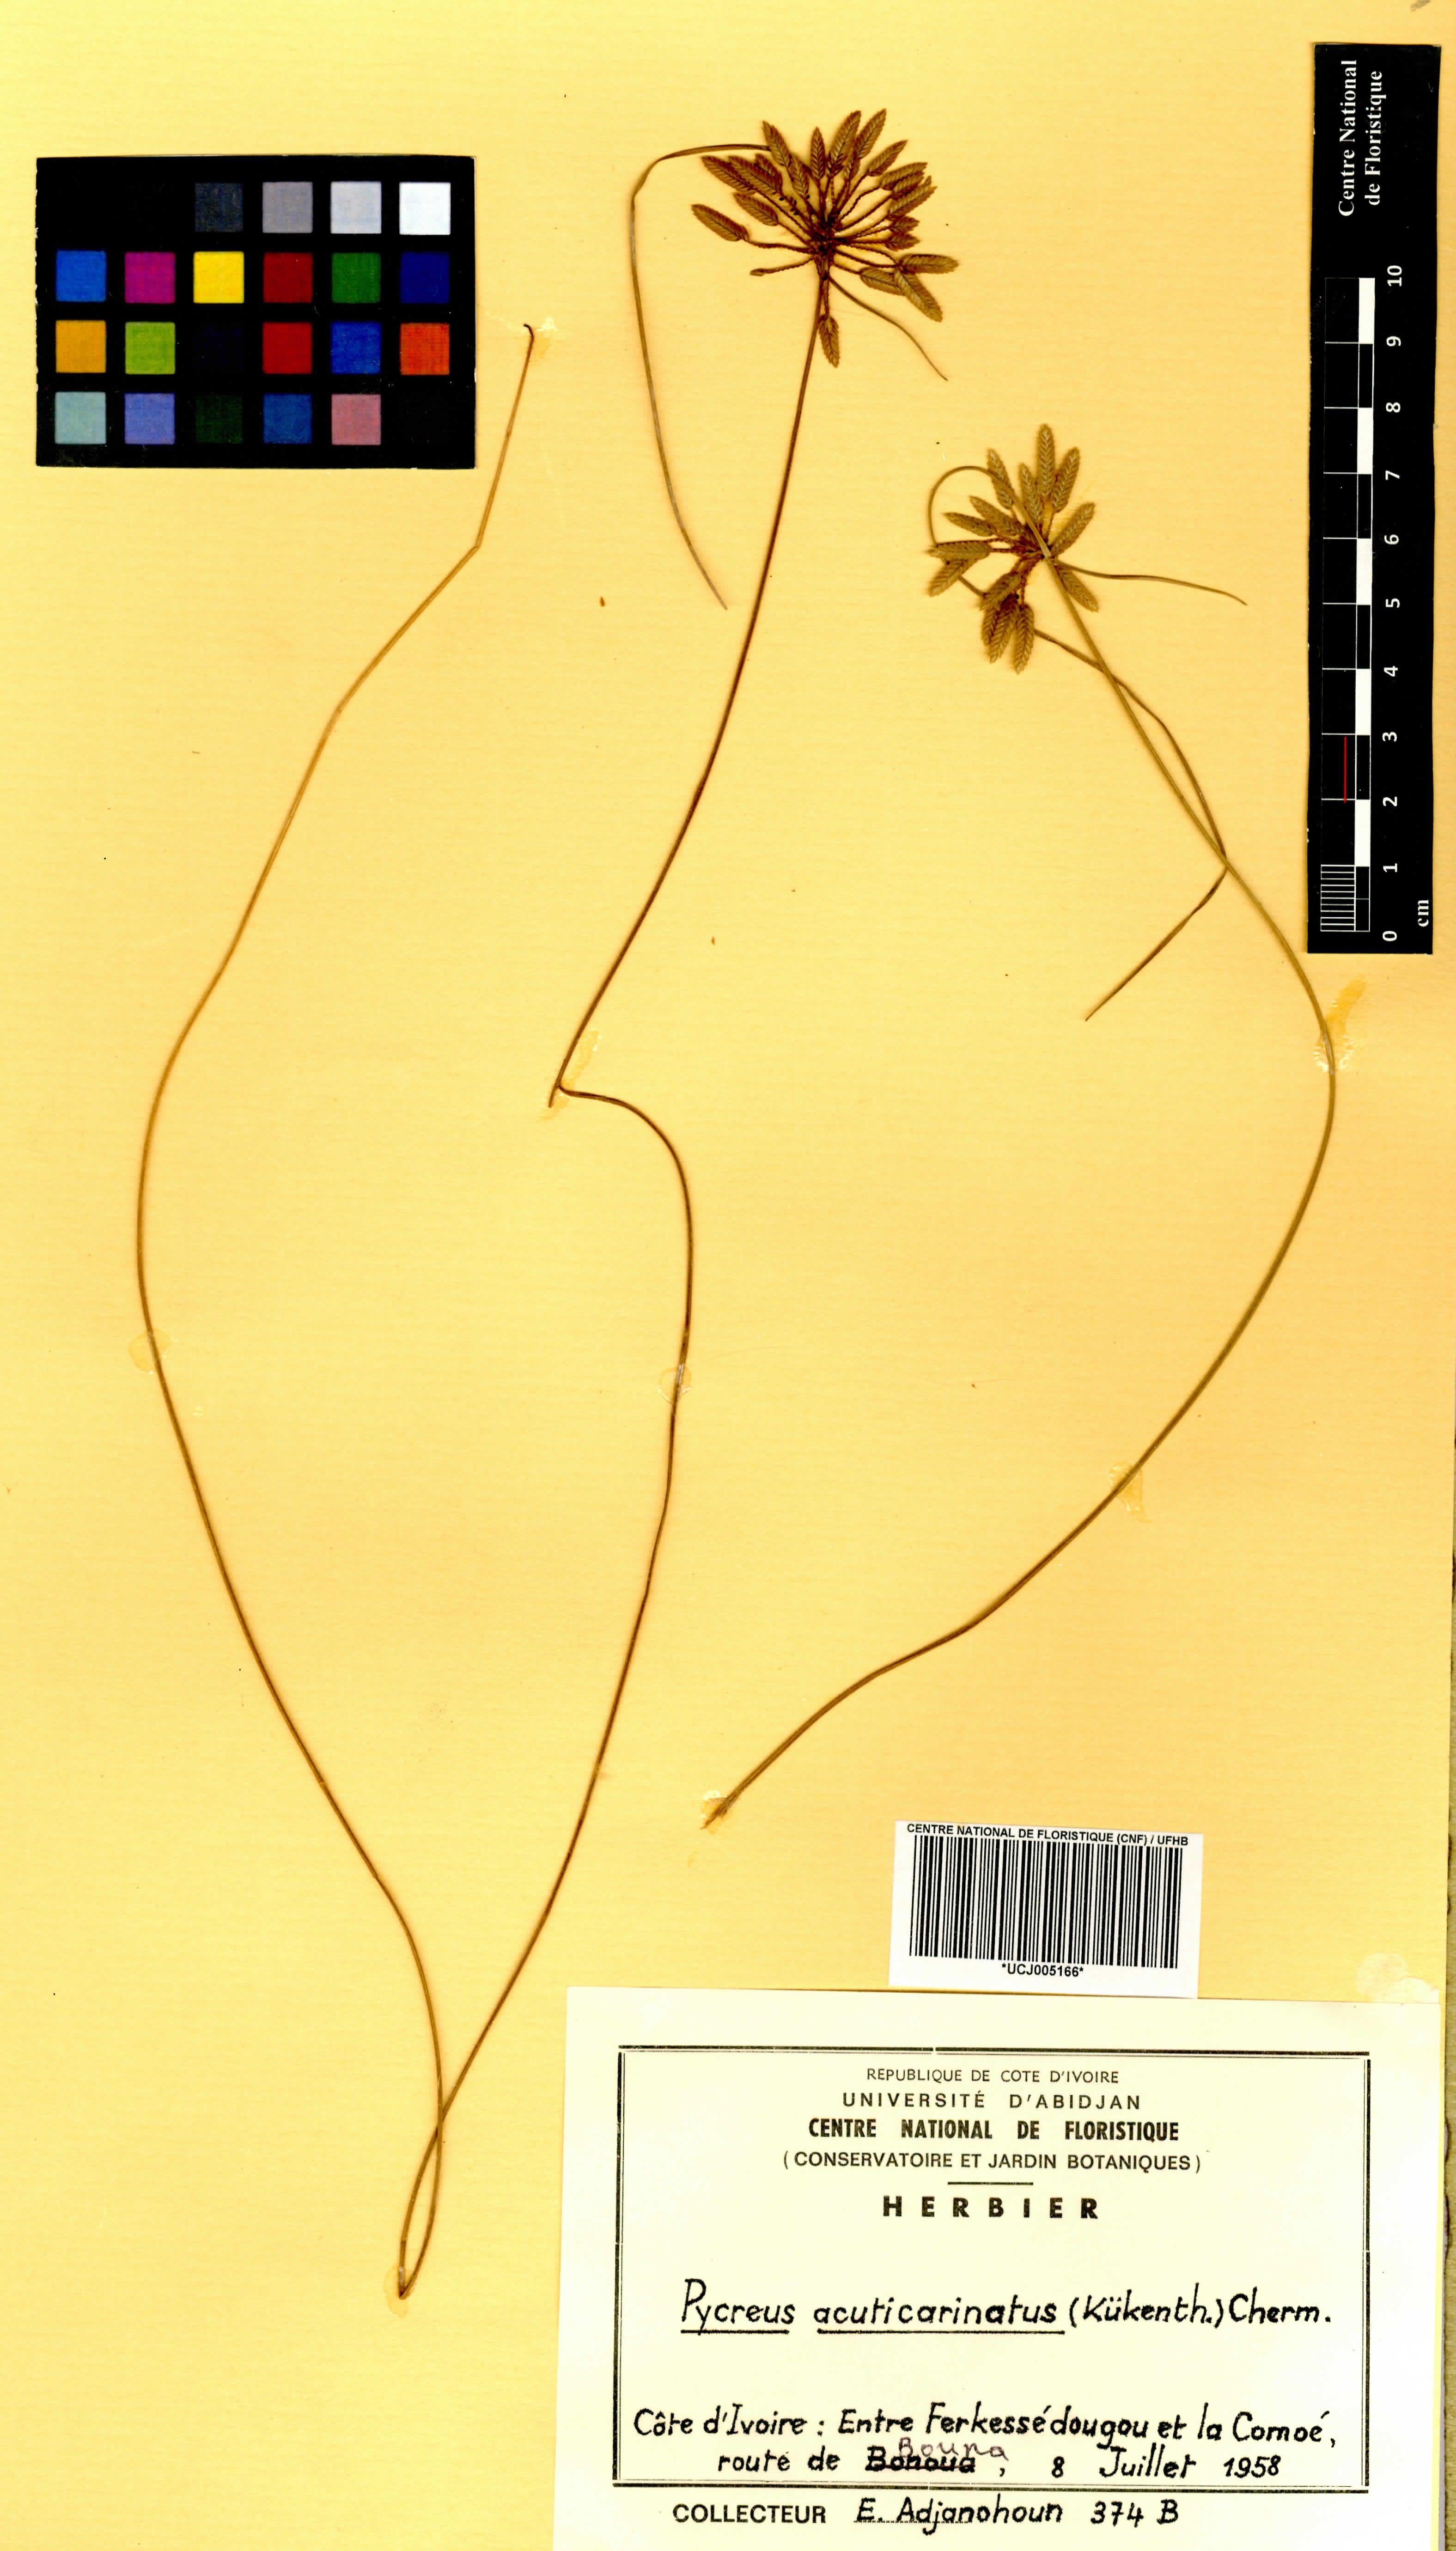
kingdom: Plantae
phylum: Tracheophyta
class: Liliopsida
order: Poales
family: Cyperaceae
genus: Cyperus
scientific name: Cyperus acuticarinatus
